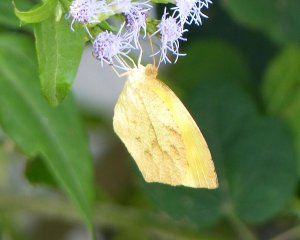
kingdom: Animalia
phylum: Arthropoda
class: Insecta
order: Lepidoptera
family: Pieridae
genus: Pyrisitia
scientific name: Pyrisitia proterpia
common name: Tailed Orange
